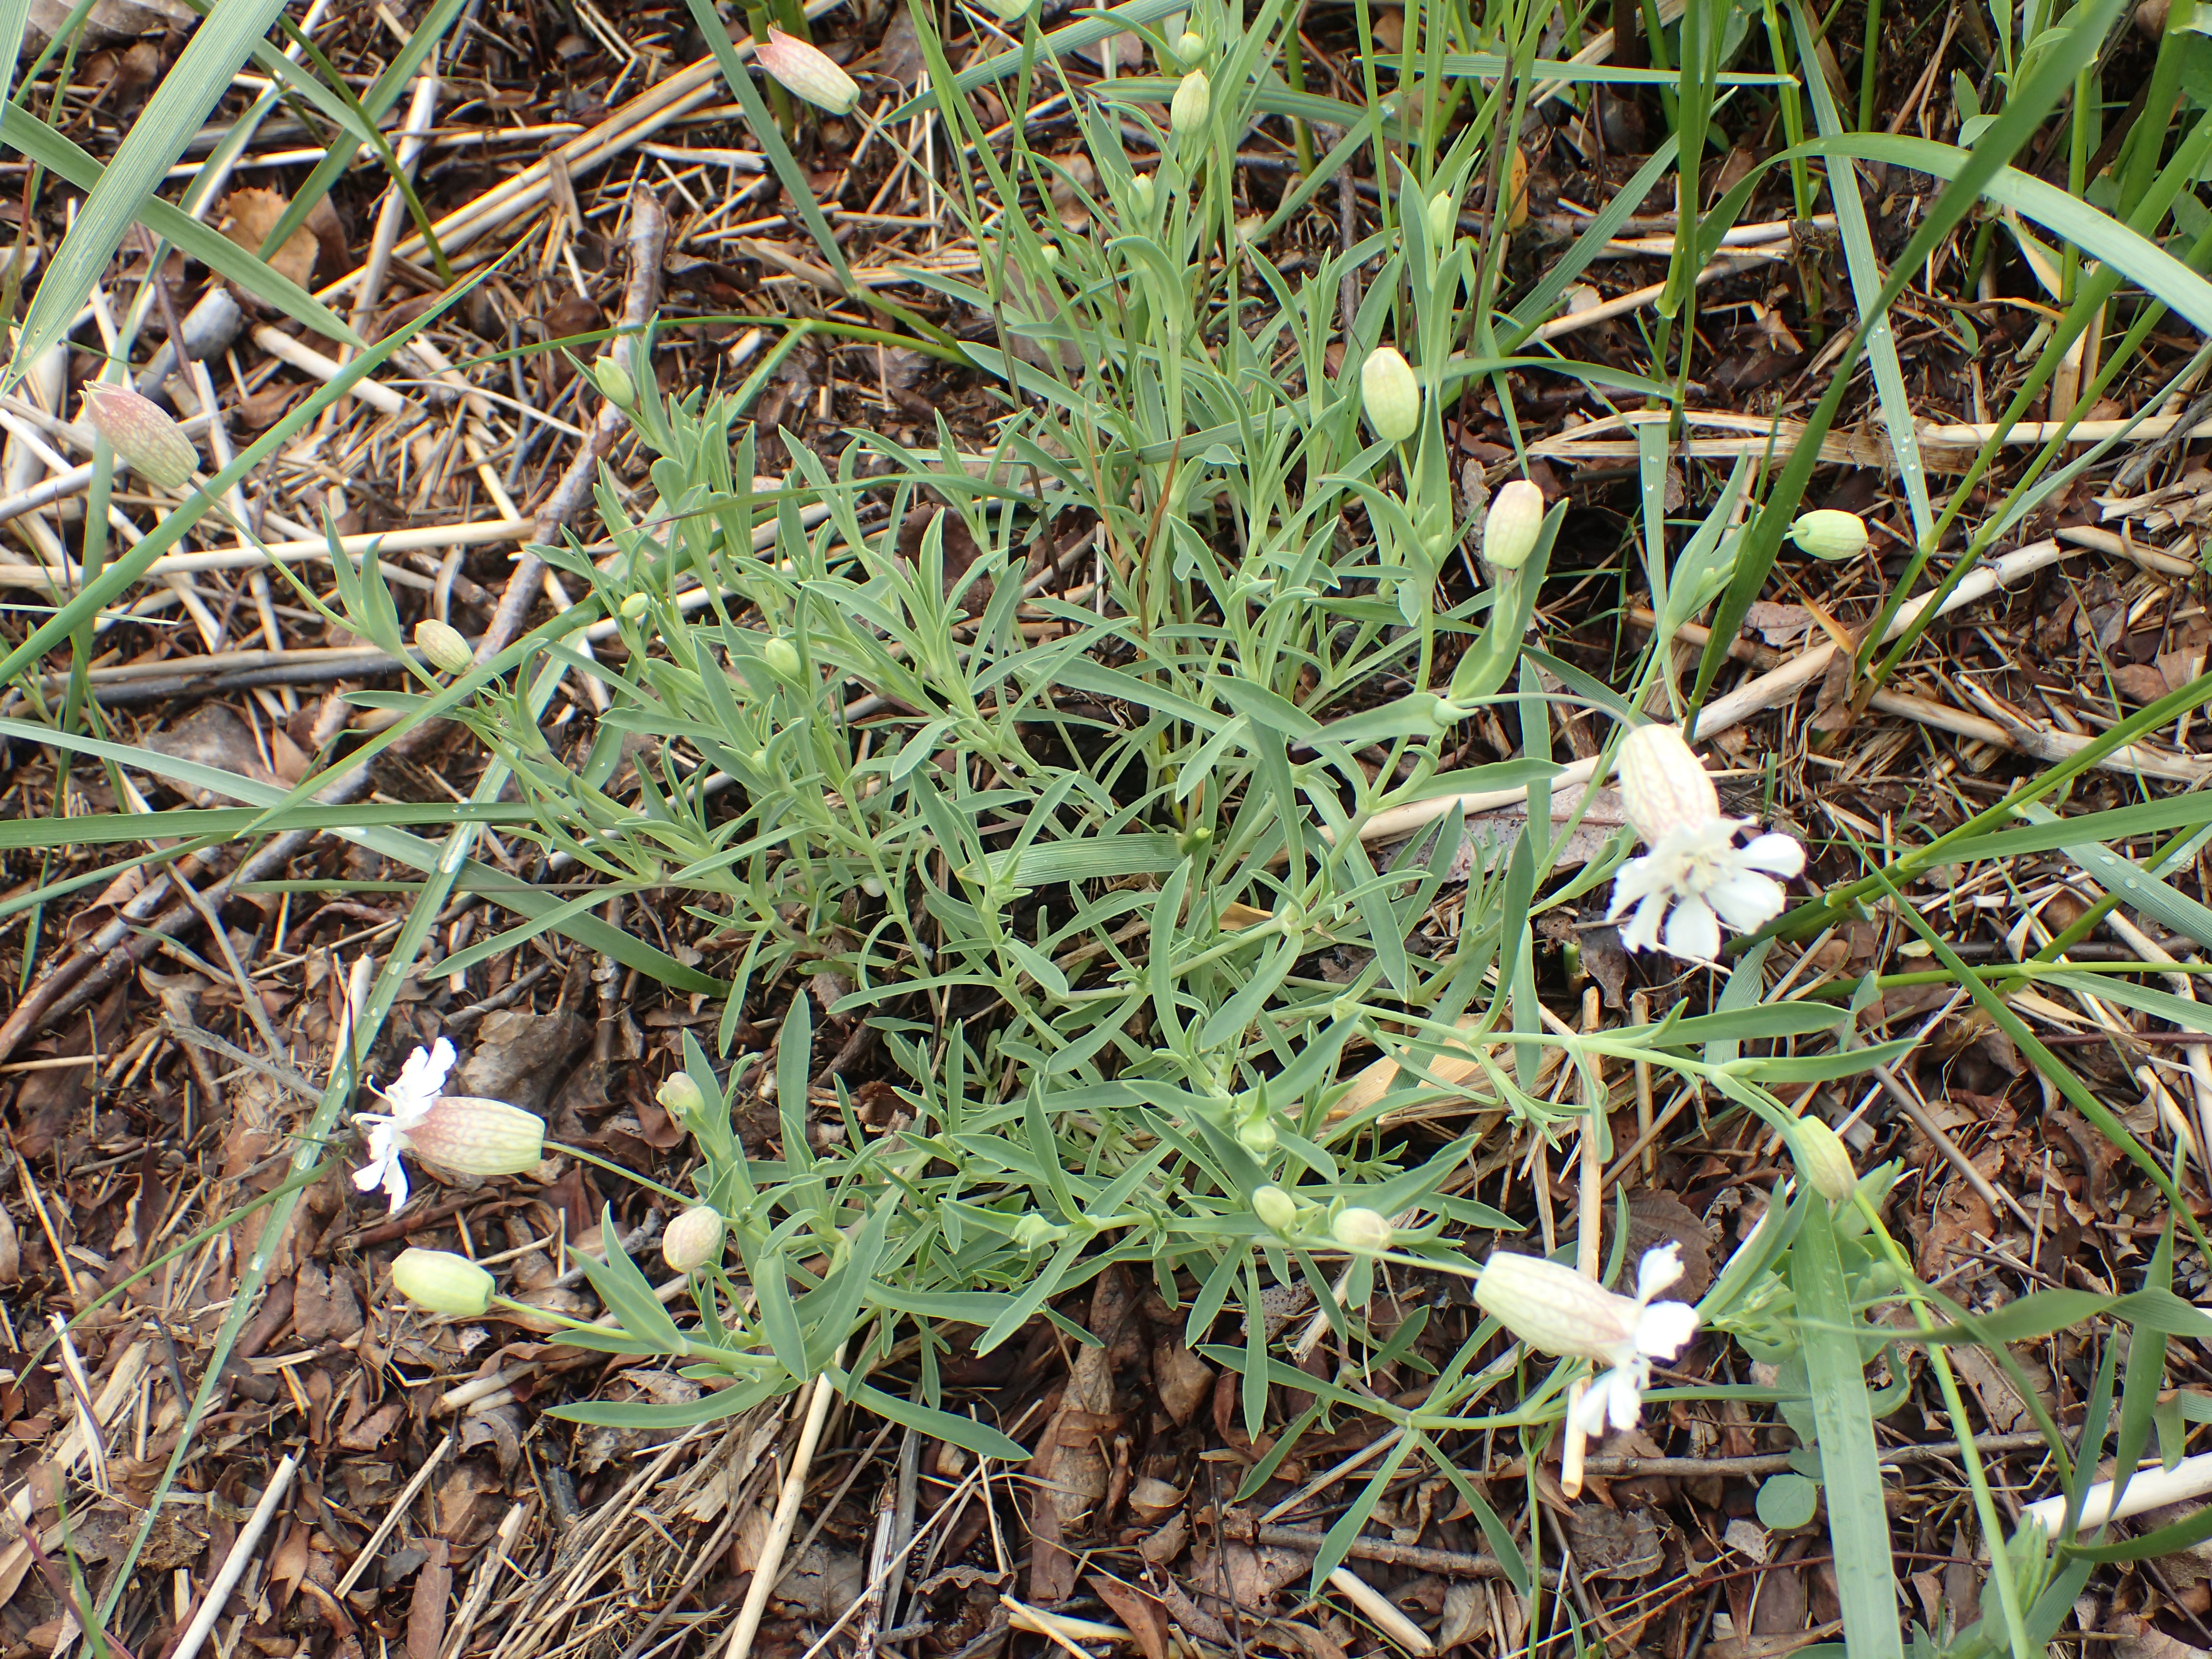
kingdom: Plantae
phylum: Tracheophyta
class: Magnoliopsida
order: Caryophyllales
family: Caryophyllaceae
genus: Silene
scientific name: Silene uniflora
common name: Sea campion
